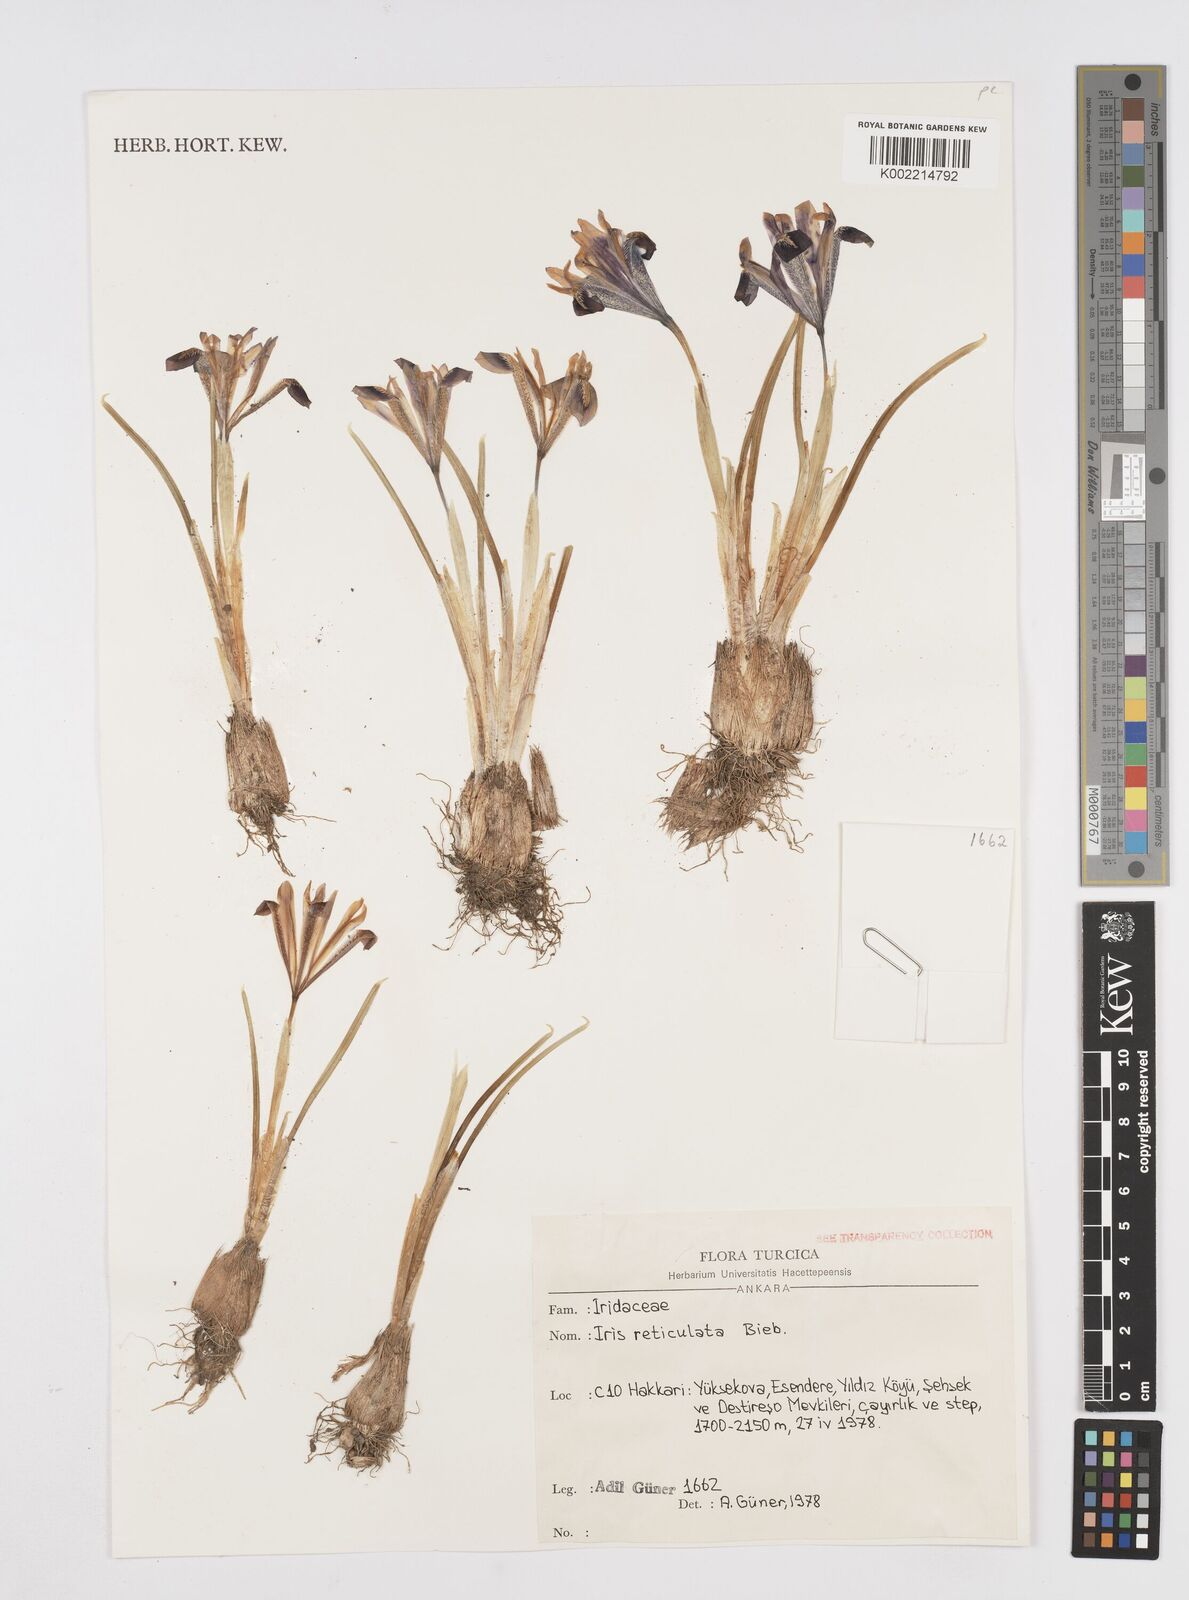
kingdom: Plantae
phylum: Tracheophyta
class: Liliopsida
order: Asparagales
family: Iridaceae
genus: Iris
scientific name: Iris reticulata
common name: Netted iris
